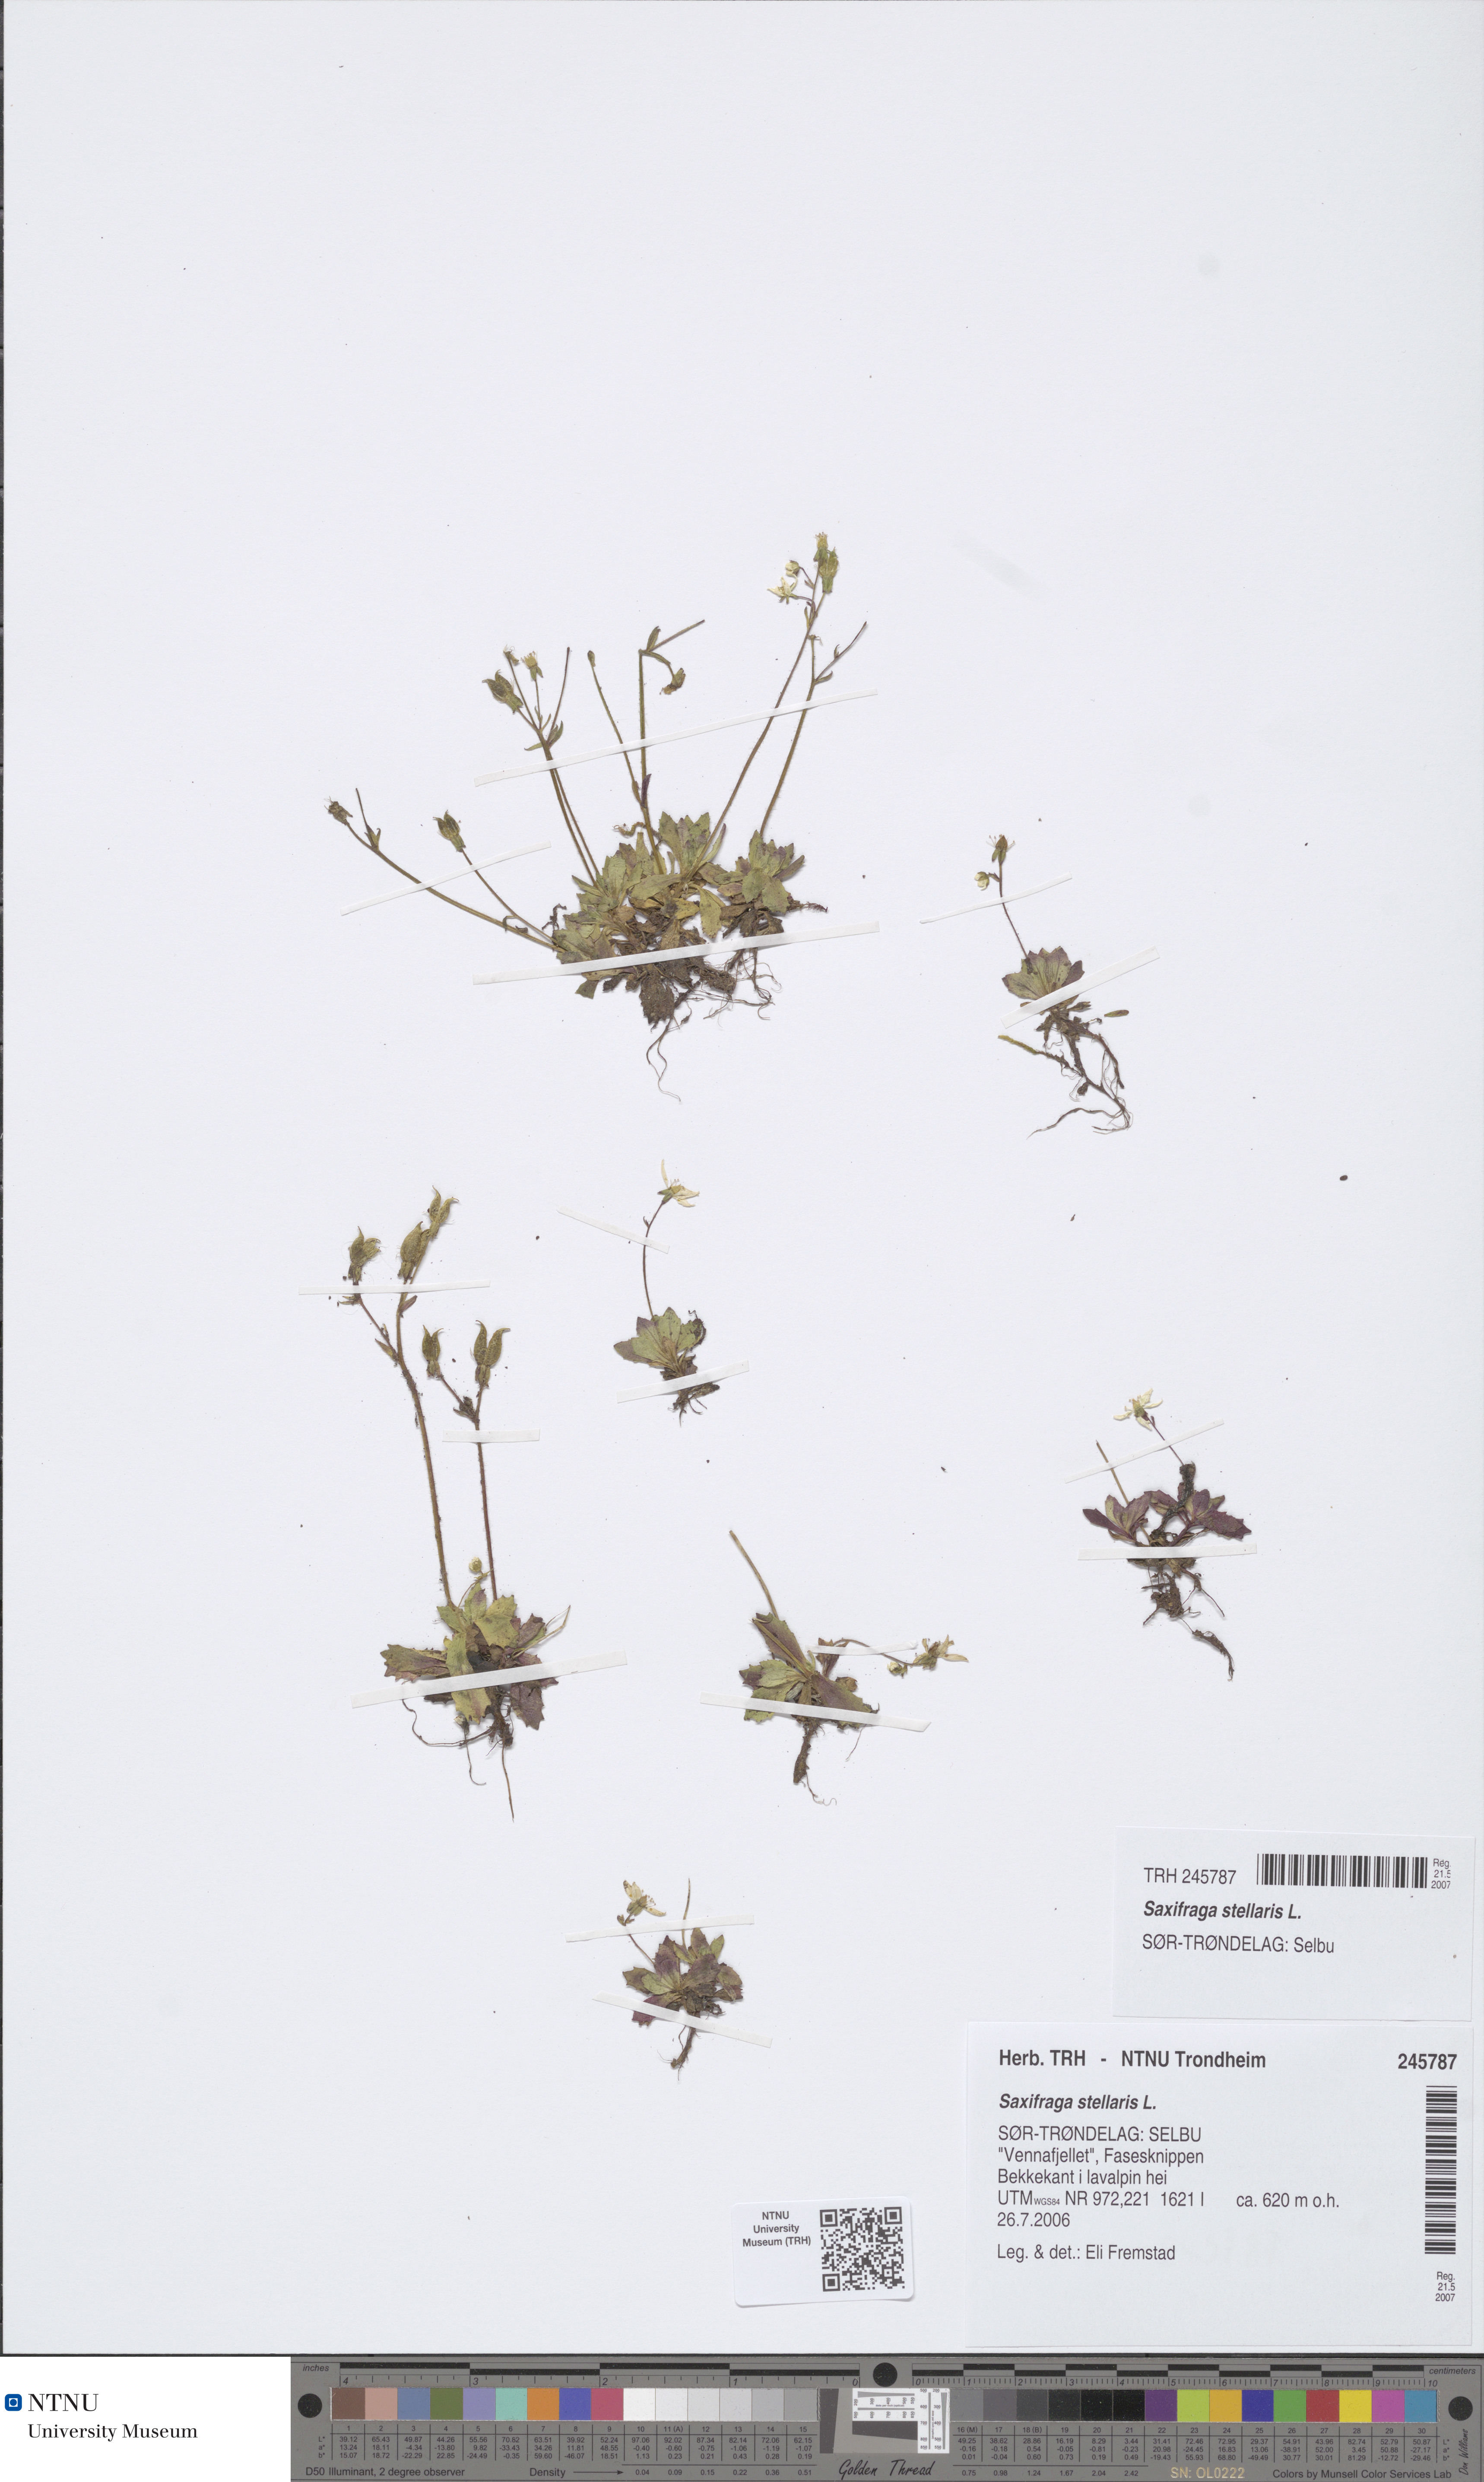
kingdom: Plantae
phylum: Tracheophyta
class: Magnoliopsida
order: Saxifragales
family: Saxifragaceae
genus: Micranthes
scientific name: Micranthes stellaris
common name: Starry saxifrage
